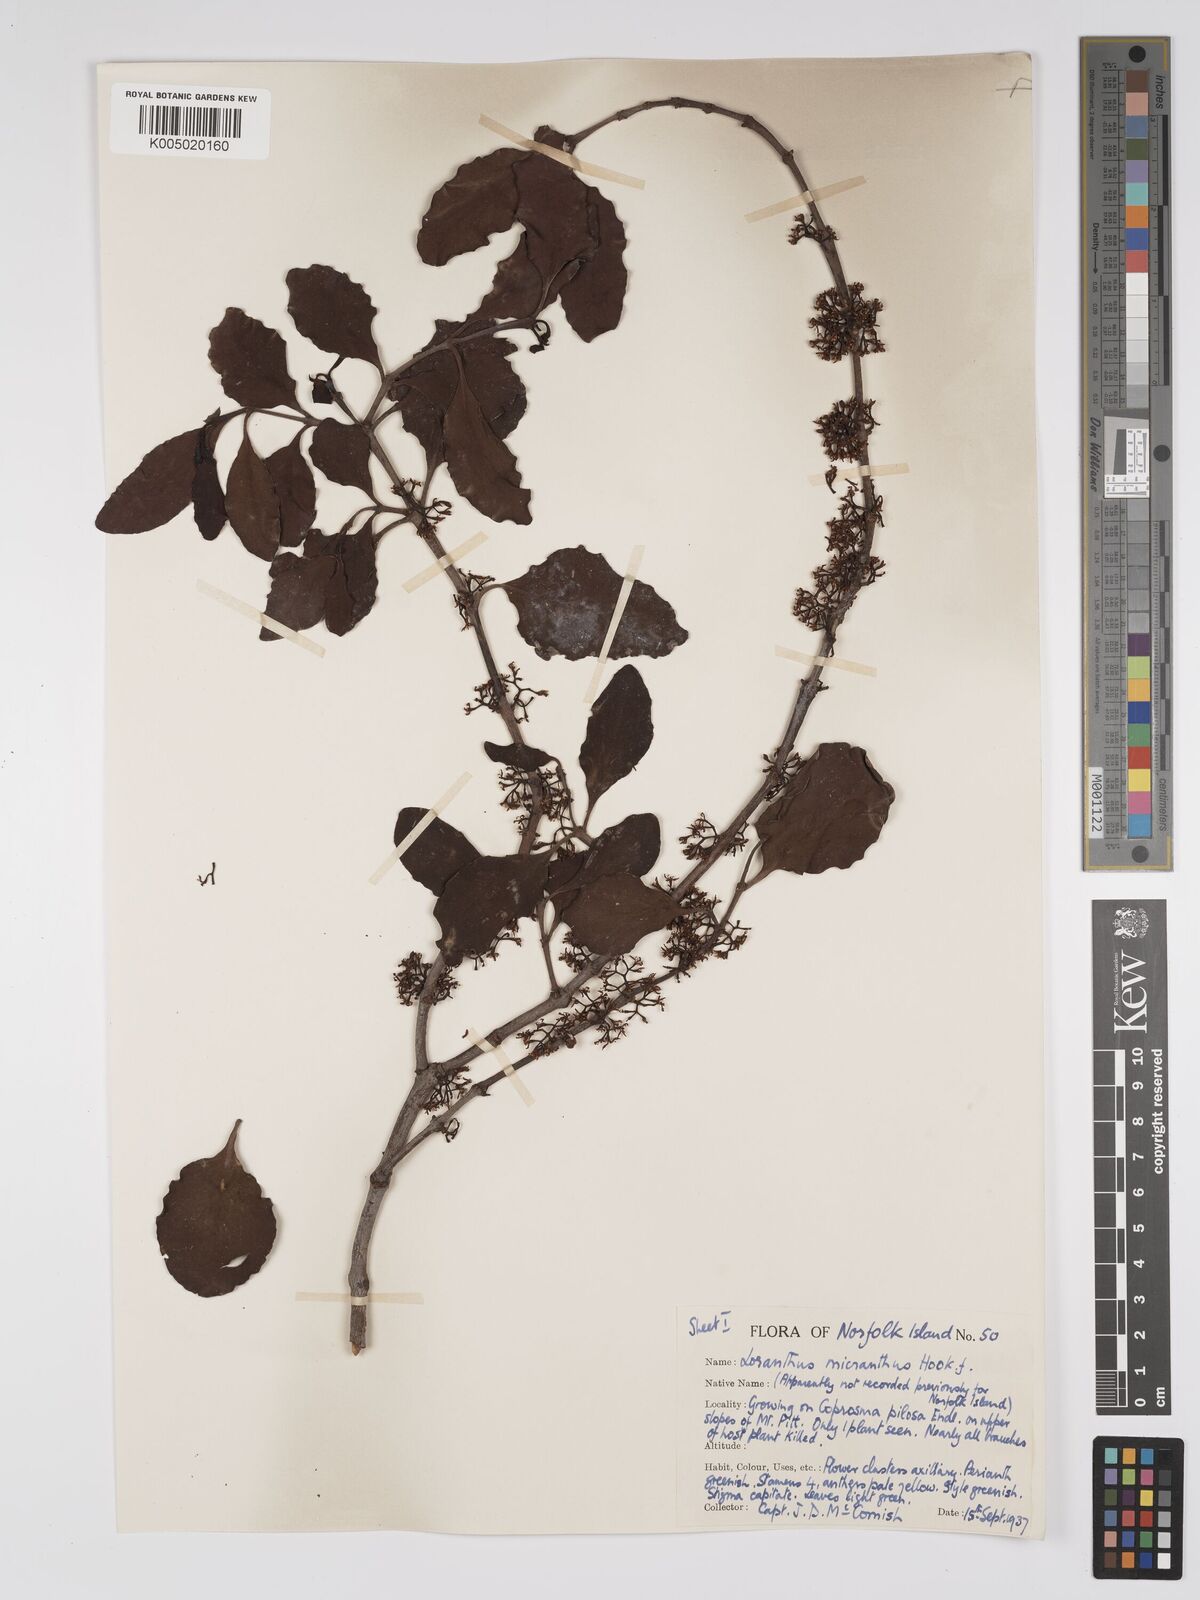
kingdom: Plantae
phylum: Tracheophyta
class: Magnoliopsida
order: Santalales
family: Loranthaceae
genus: Ileostylus
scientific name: Ileostylus micranthus
